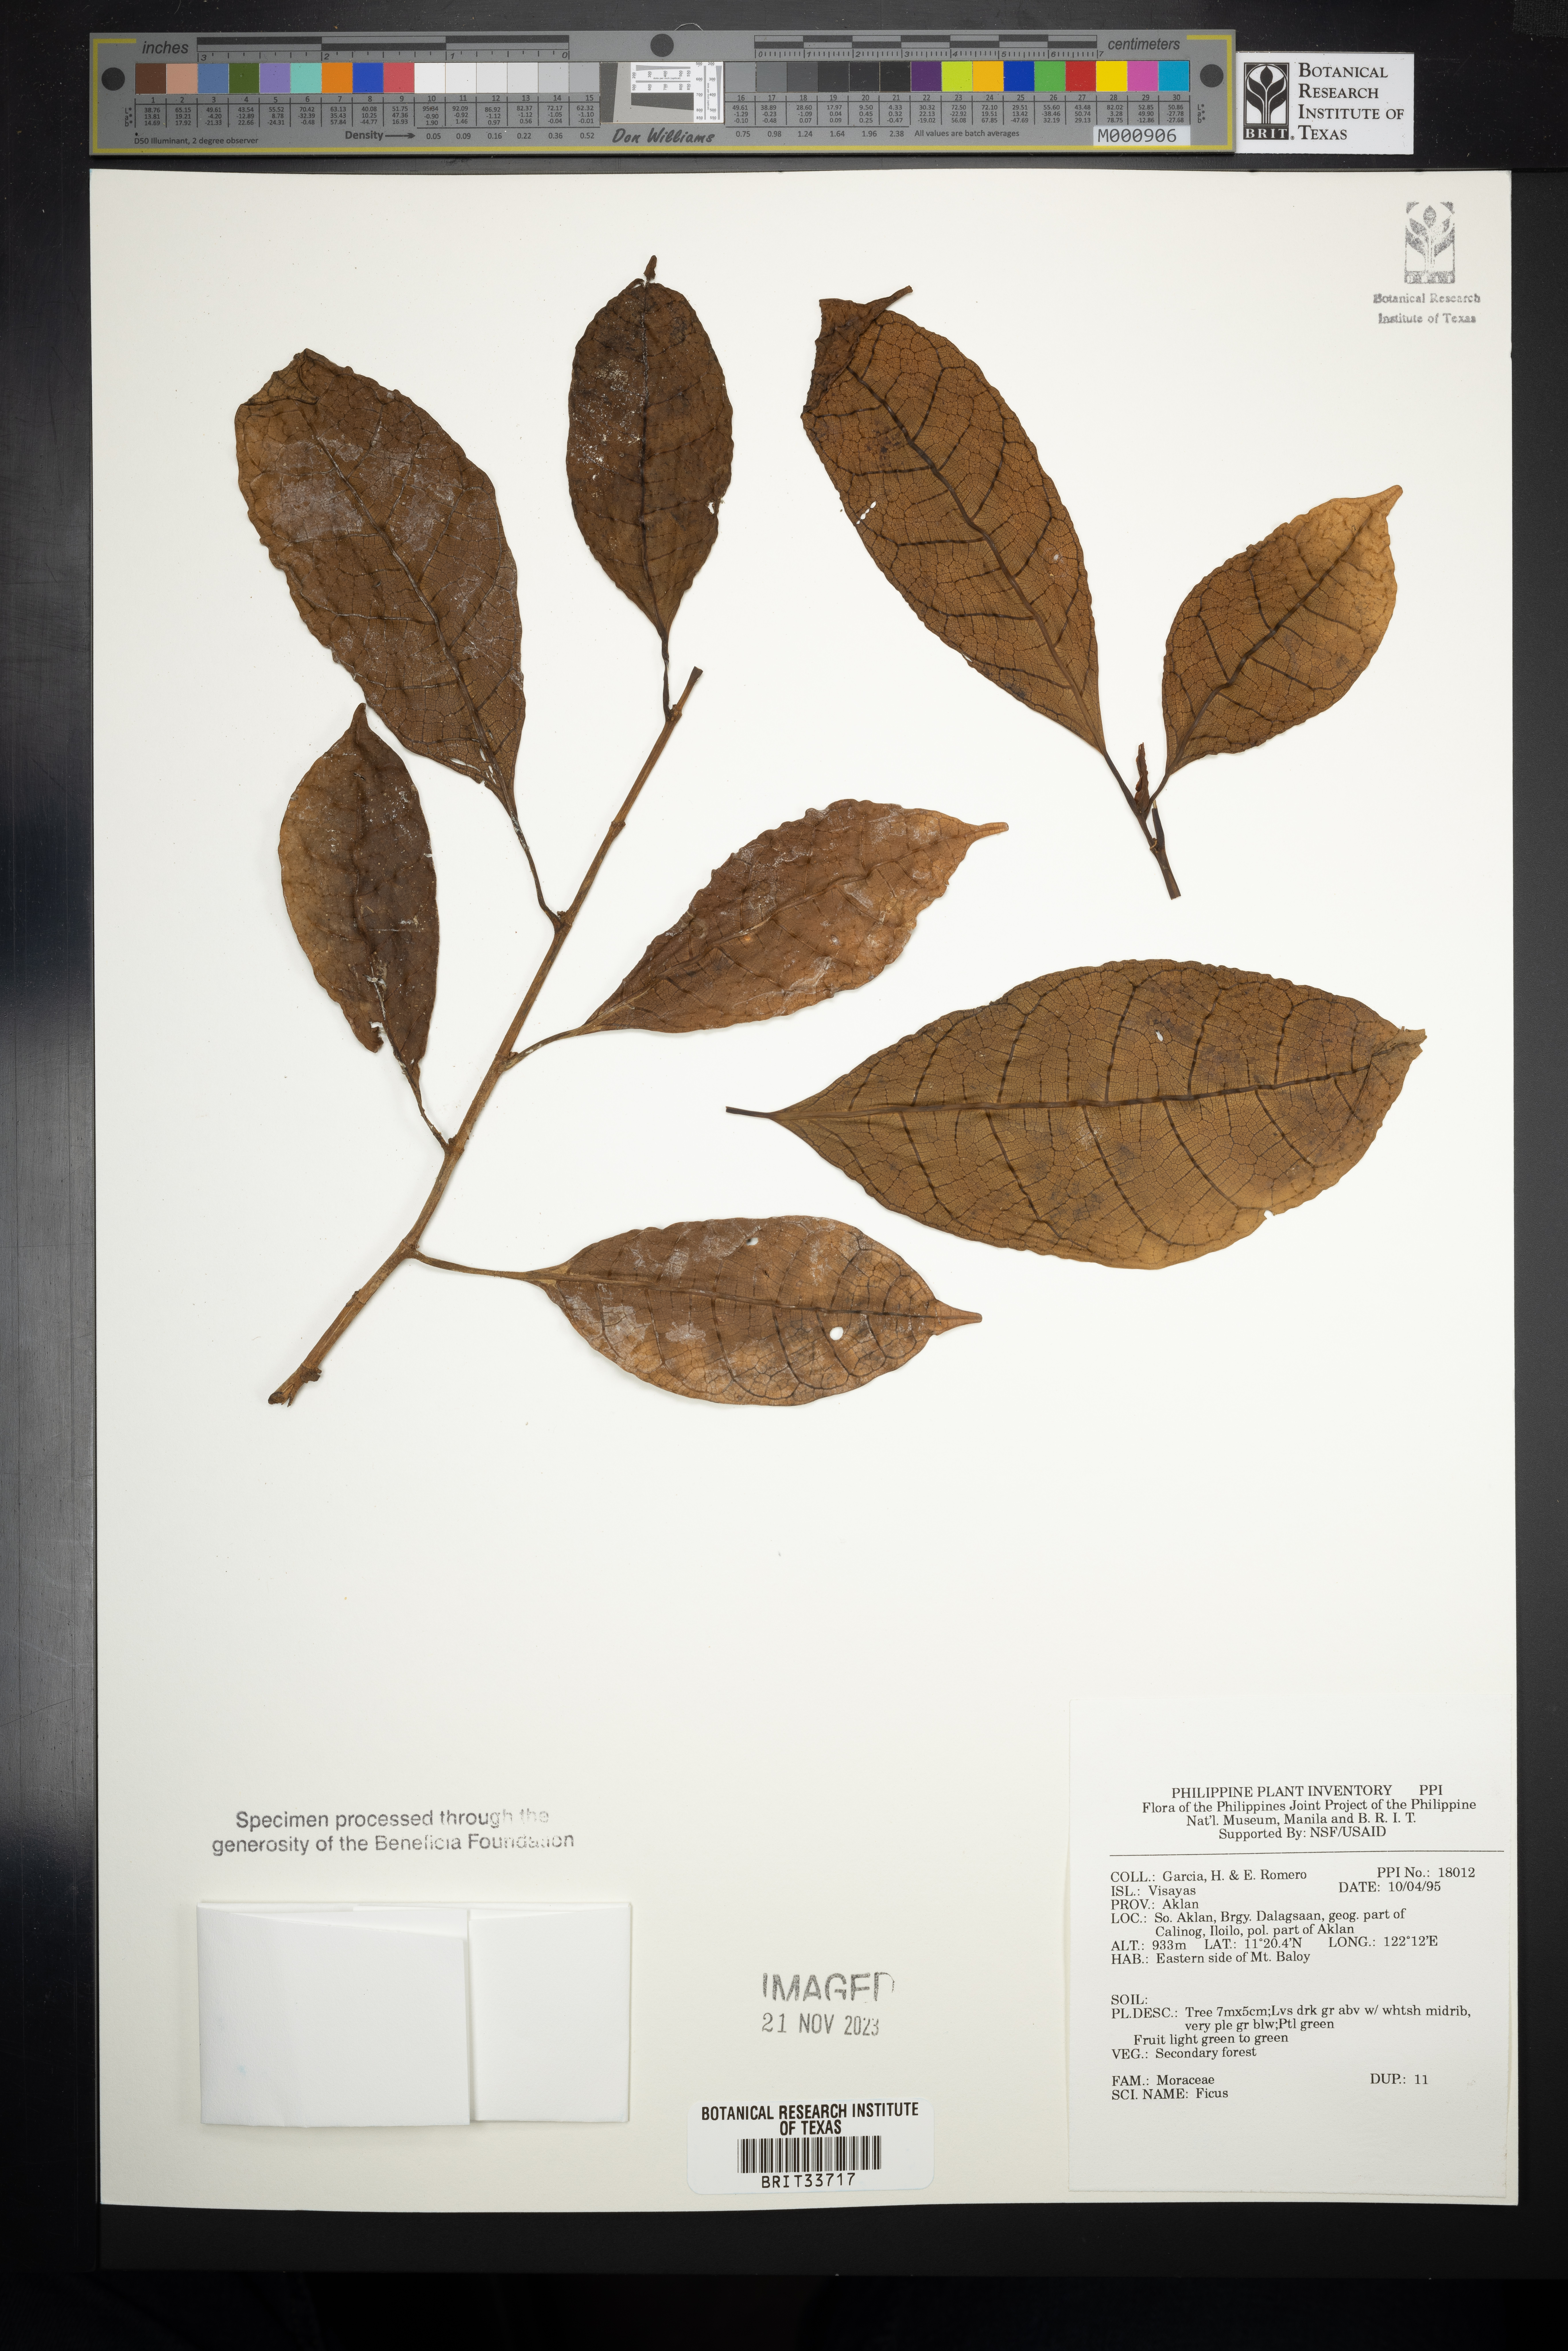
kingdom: Plantae
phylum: Tracheophyta
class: Magnoliopsida
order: Rosales
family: Moraceae
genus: Ficus
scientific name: Ficus
